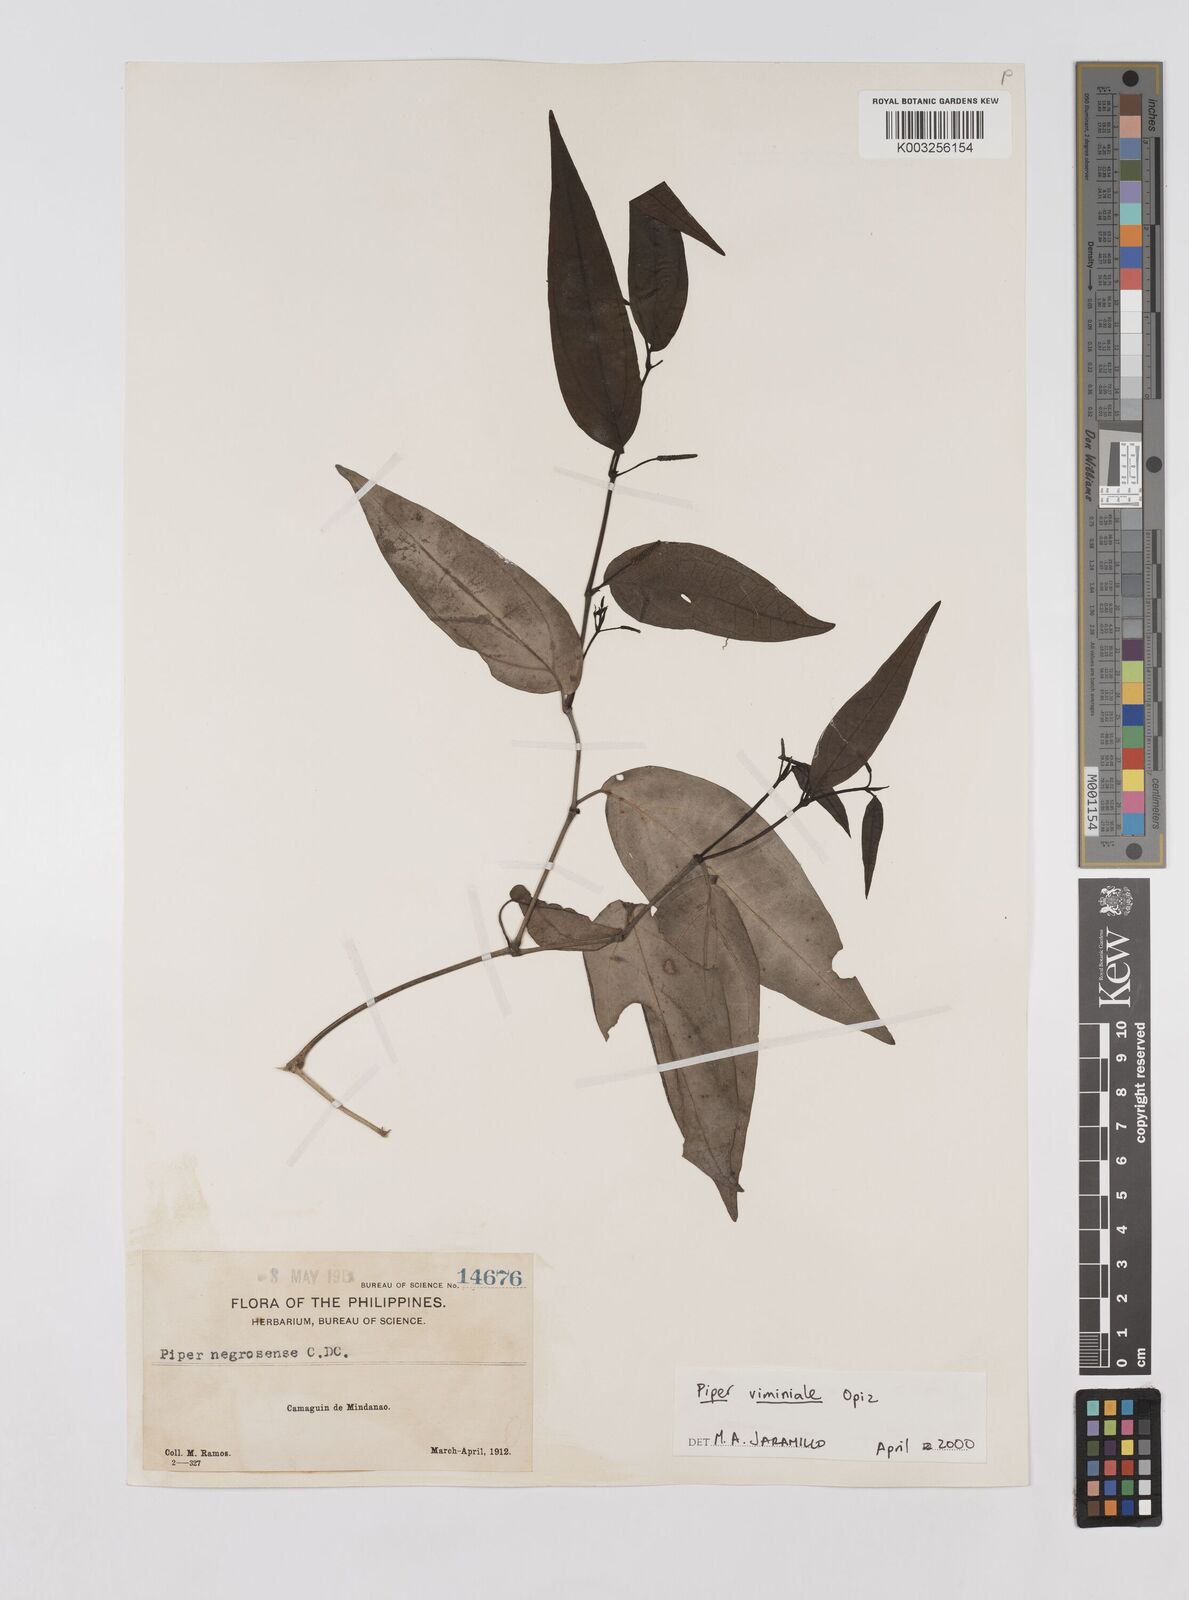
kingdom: Plantae
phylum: Tracheophyta
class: Magnoliopsida
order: Piperales
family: Piperaceae
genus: Piper
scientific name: Piper lanatum
